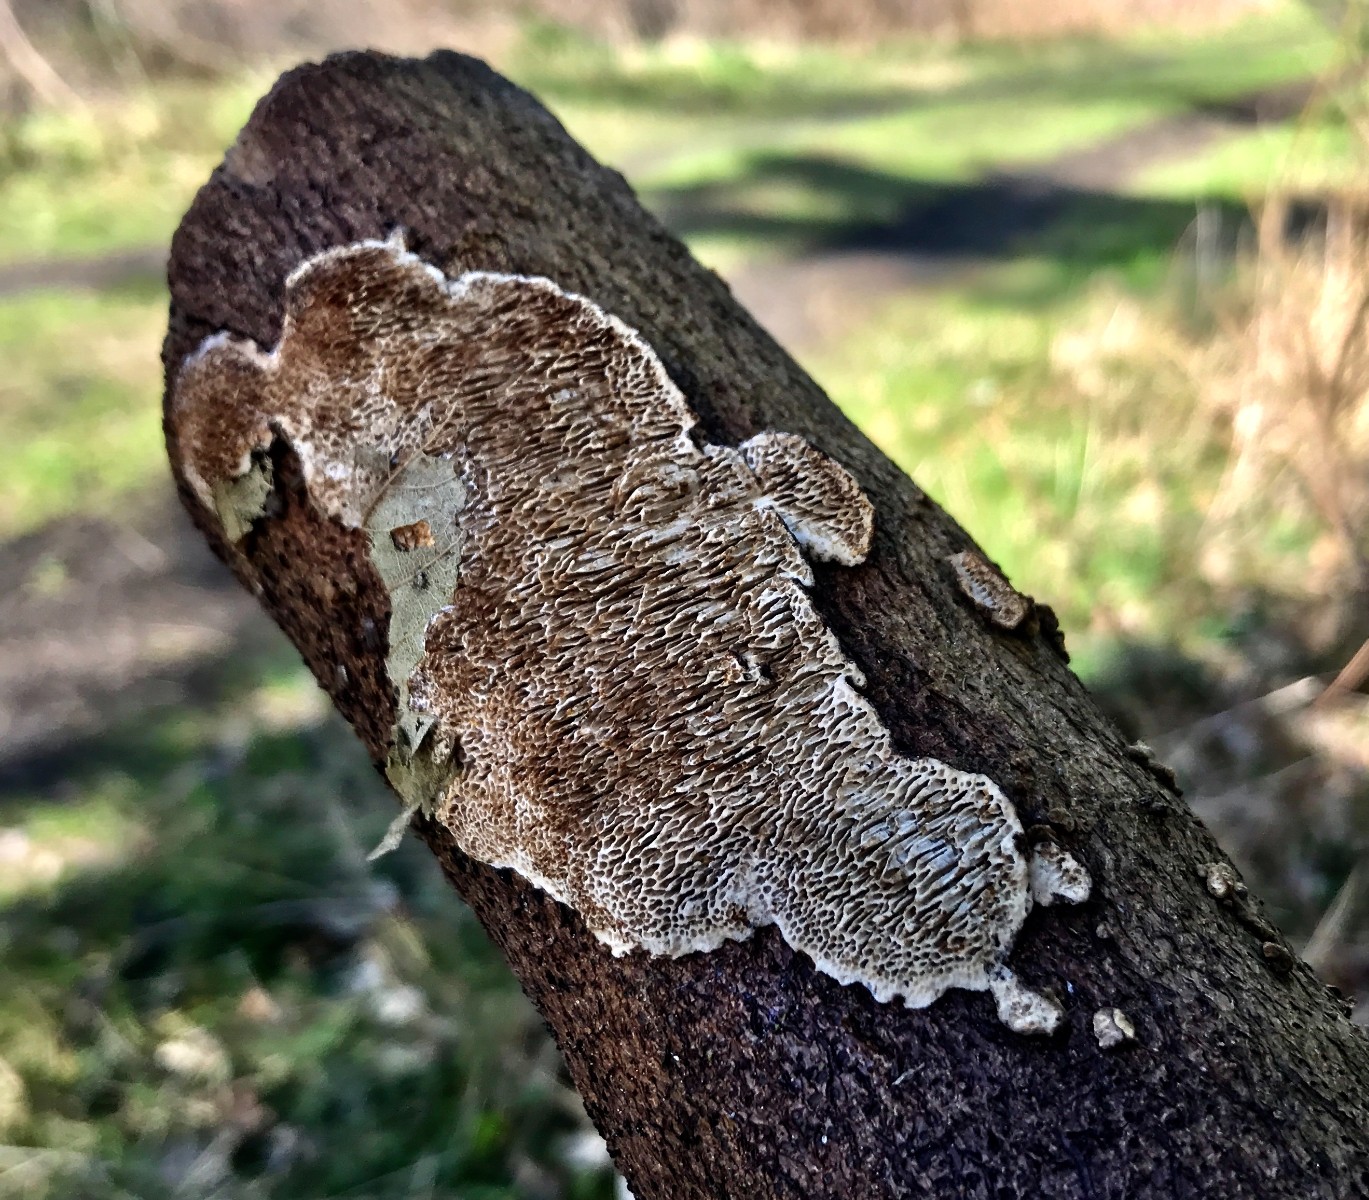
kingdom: Fungi
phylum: Basidiomycota
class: Agaricomycetes
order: Polyporales
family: Polyporaceae
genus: Podofomes
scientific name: Podofomes mollis
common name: blød begporesvamp
